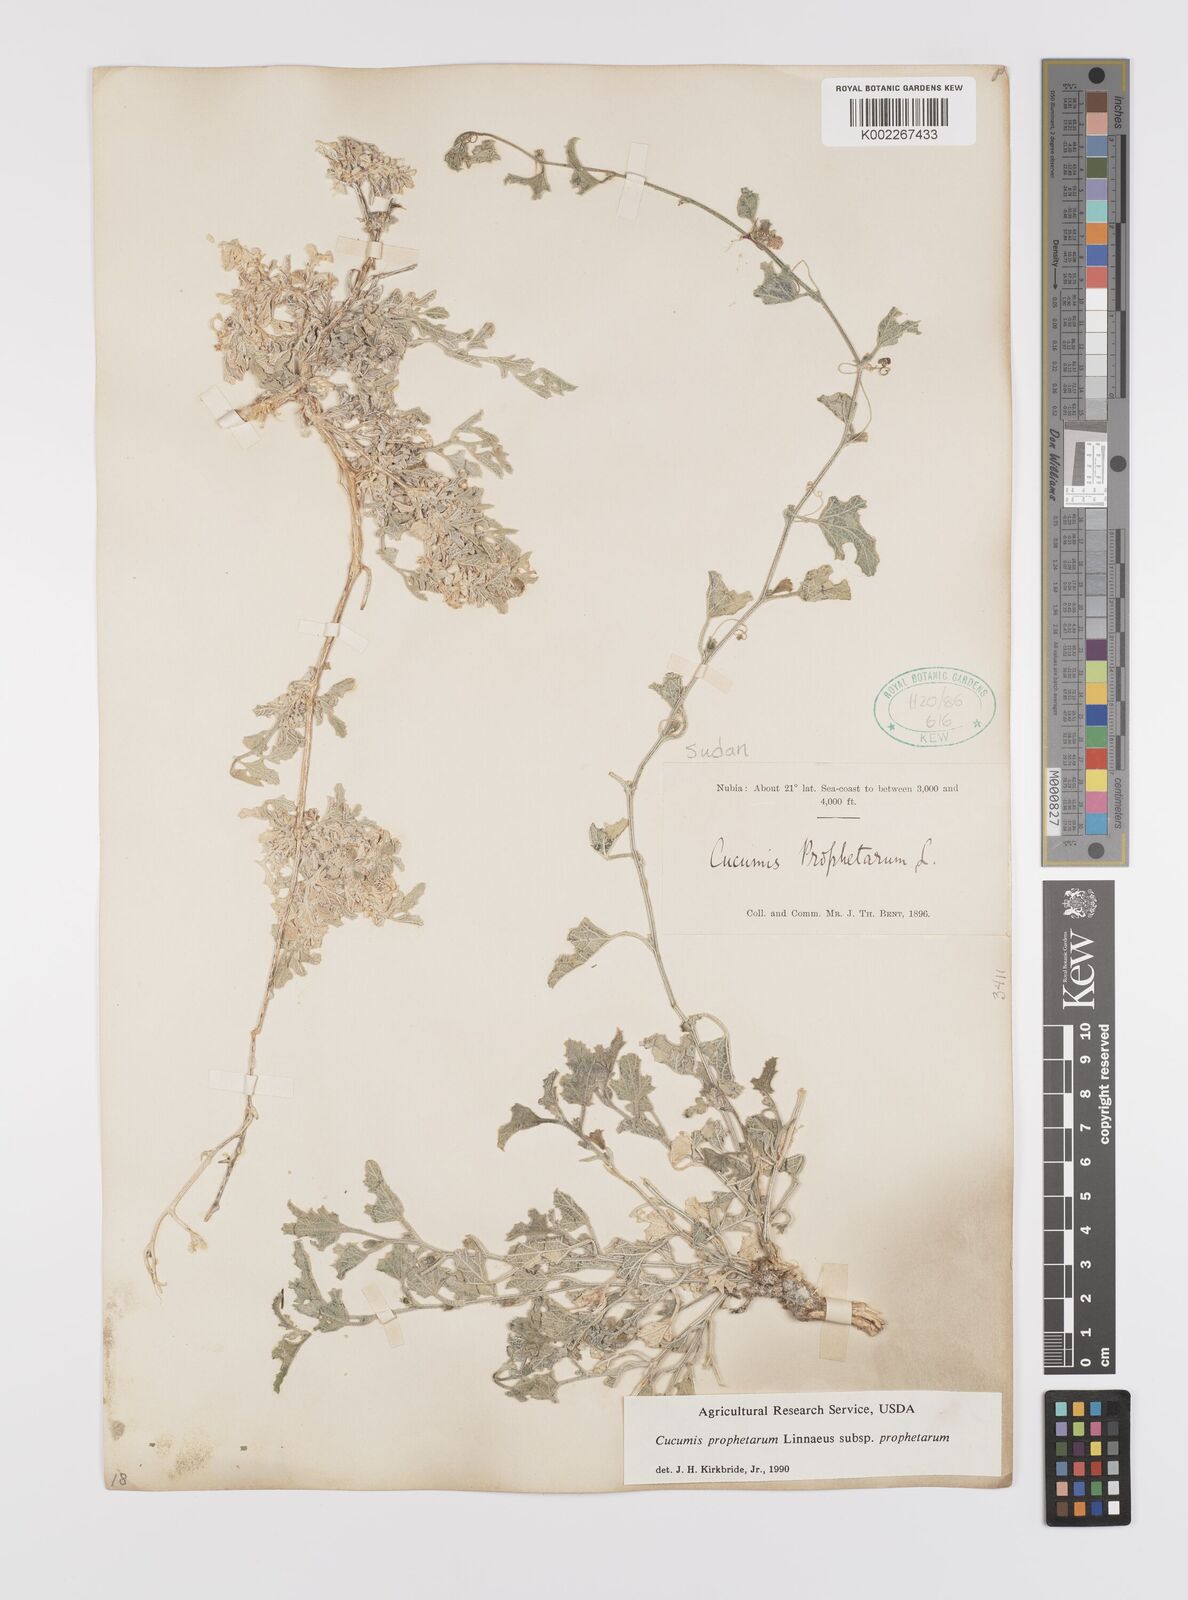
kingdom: Plantae
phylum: Tracheophyta
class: Magnoliopsida
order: Cucurbitales
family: Cucurbitaceae
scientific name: Cucurbitaceae
